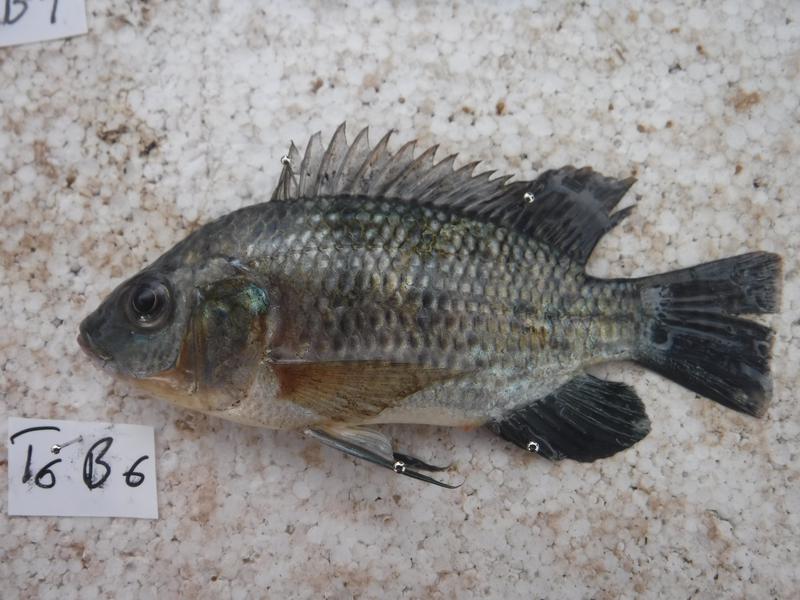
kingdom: Animalia
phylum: Chordata
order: Perciformes
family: Cichlidae
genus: Oreochromis
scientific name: Oreochromis urolepis
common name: Wami tilapia
